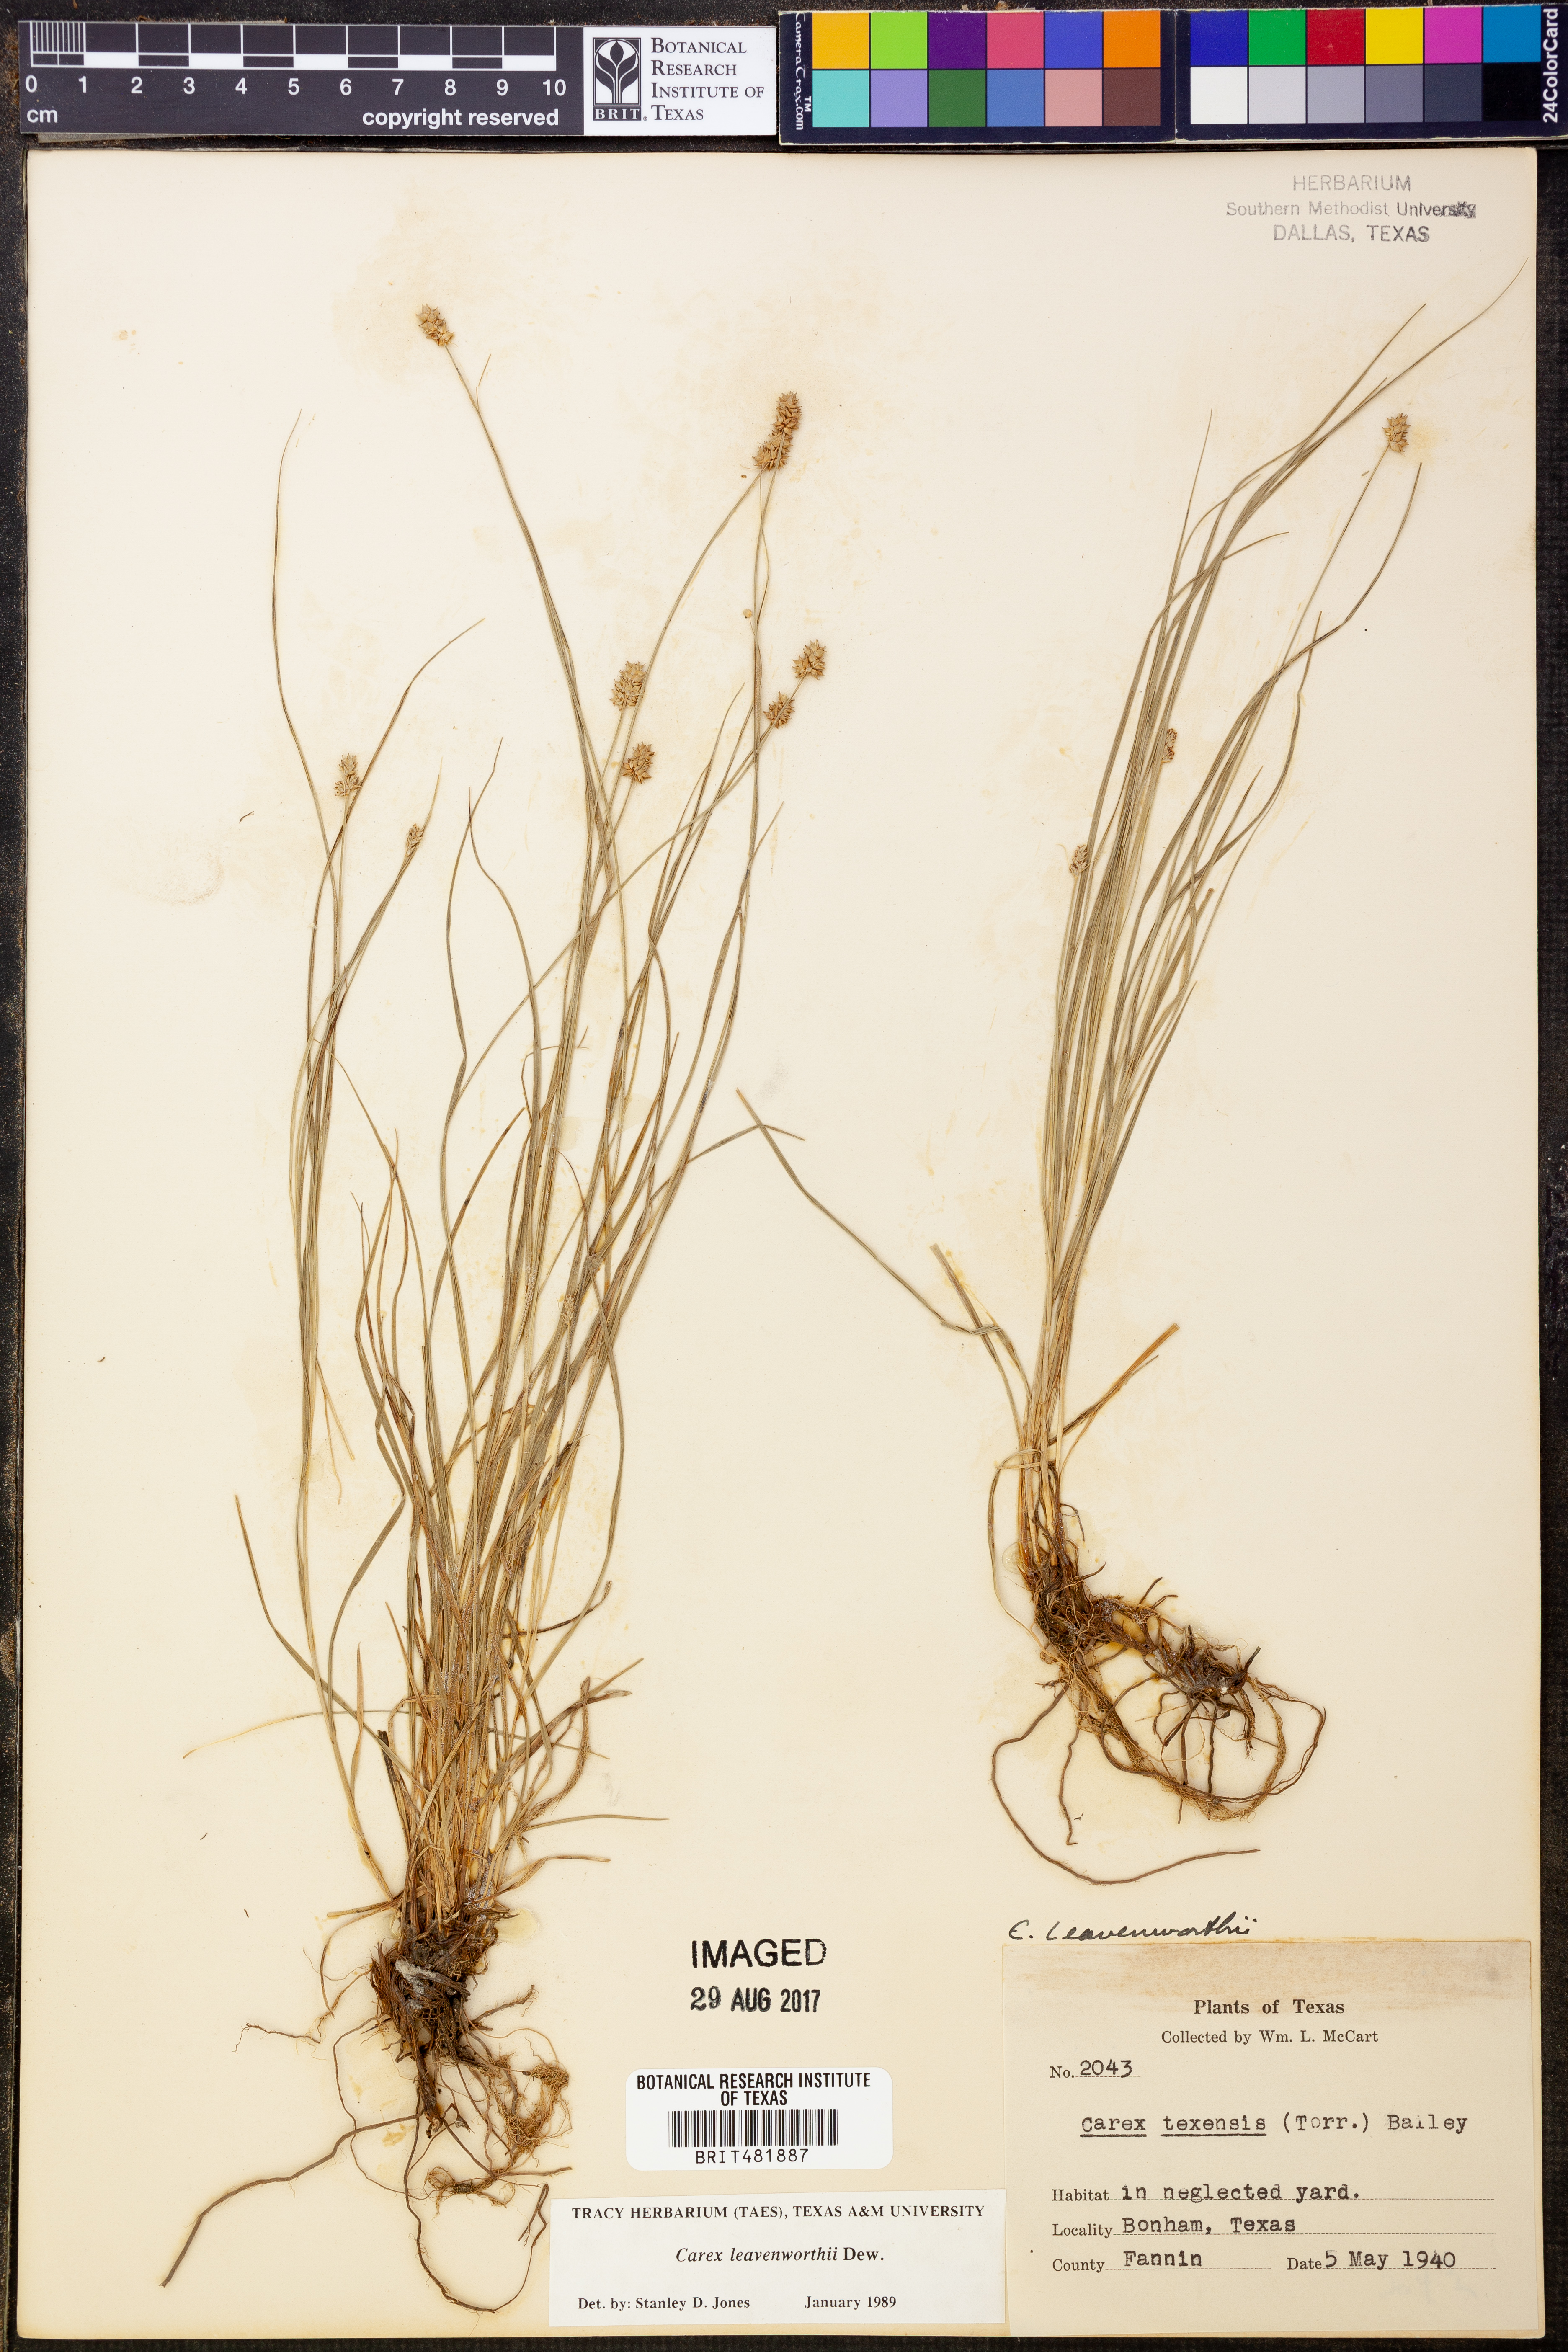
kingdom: Plantae
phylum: Tracheophyta
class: Liliopsida
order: Poales
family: Cyperaceae
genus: Carex
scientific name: Carex leavenworthii
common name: Leavenworth's bracted sedge
